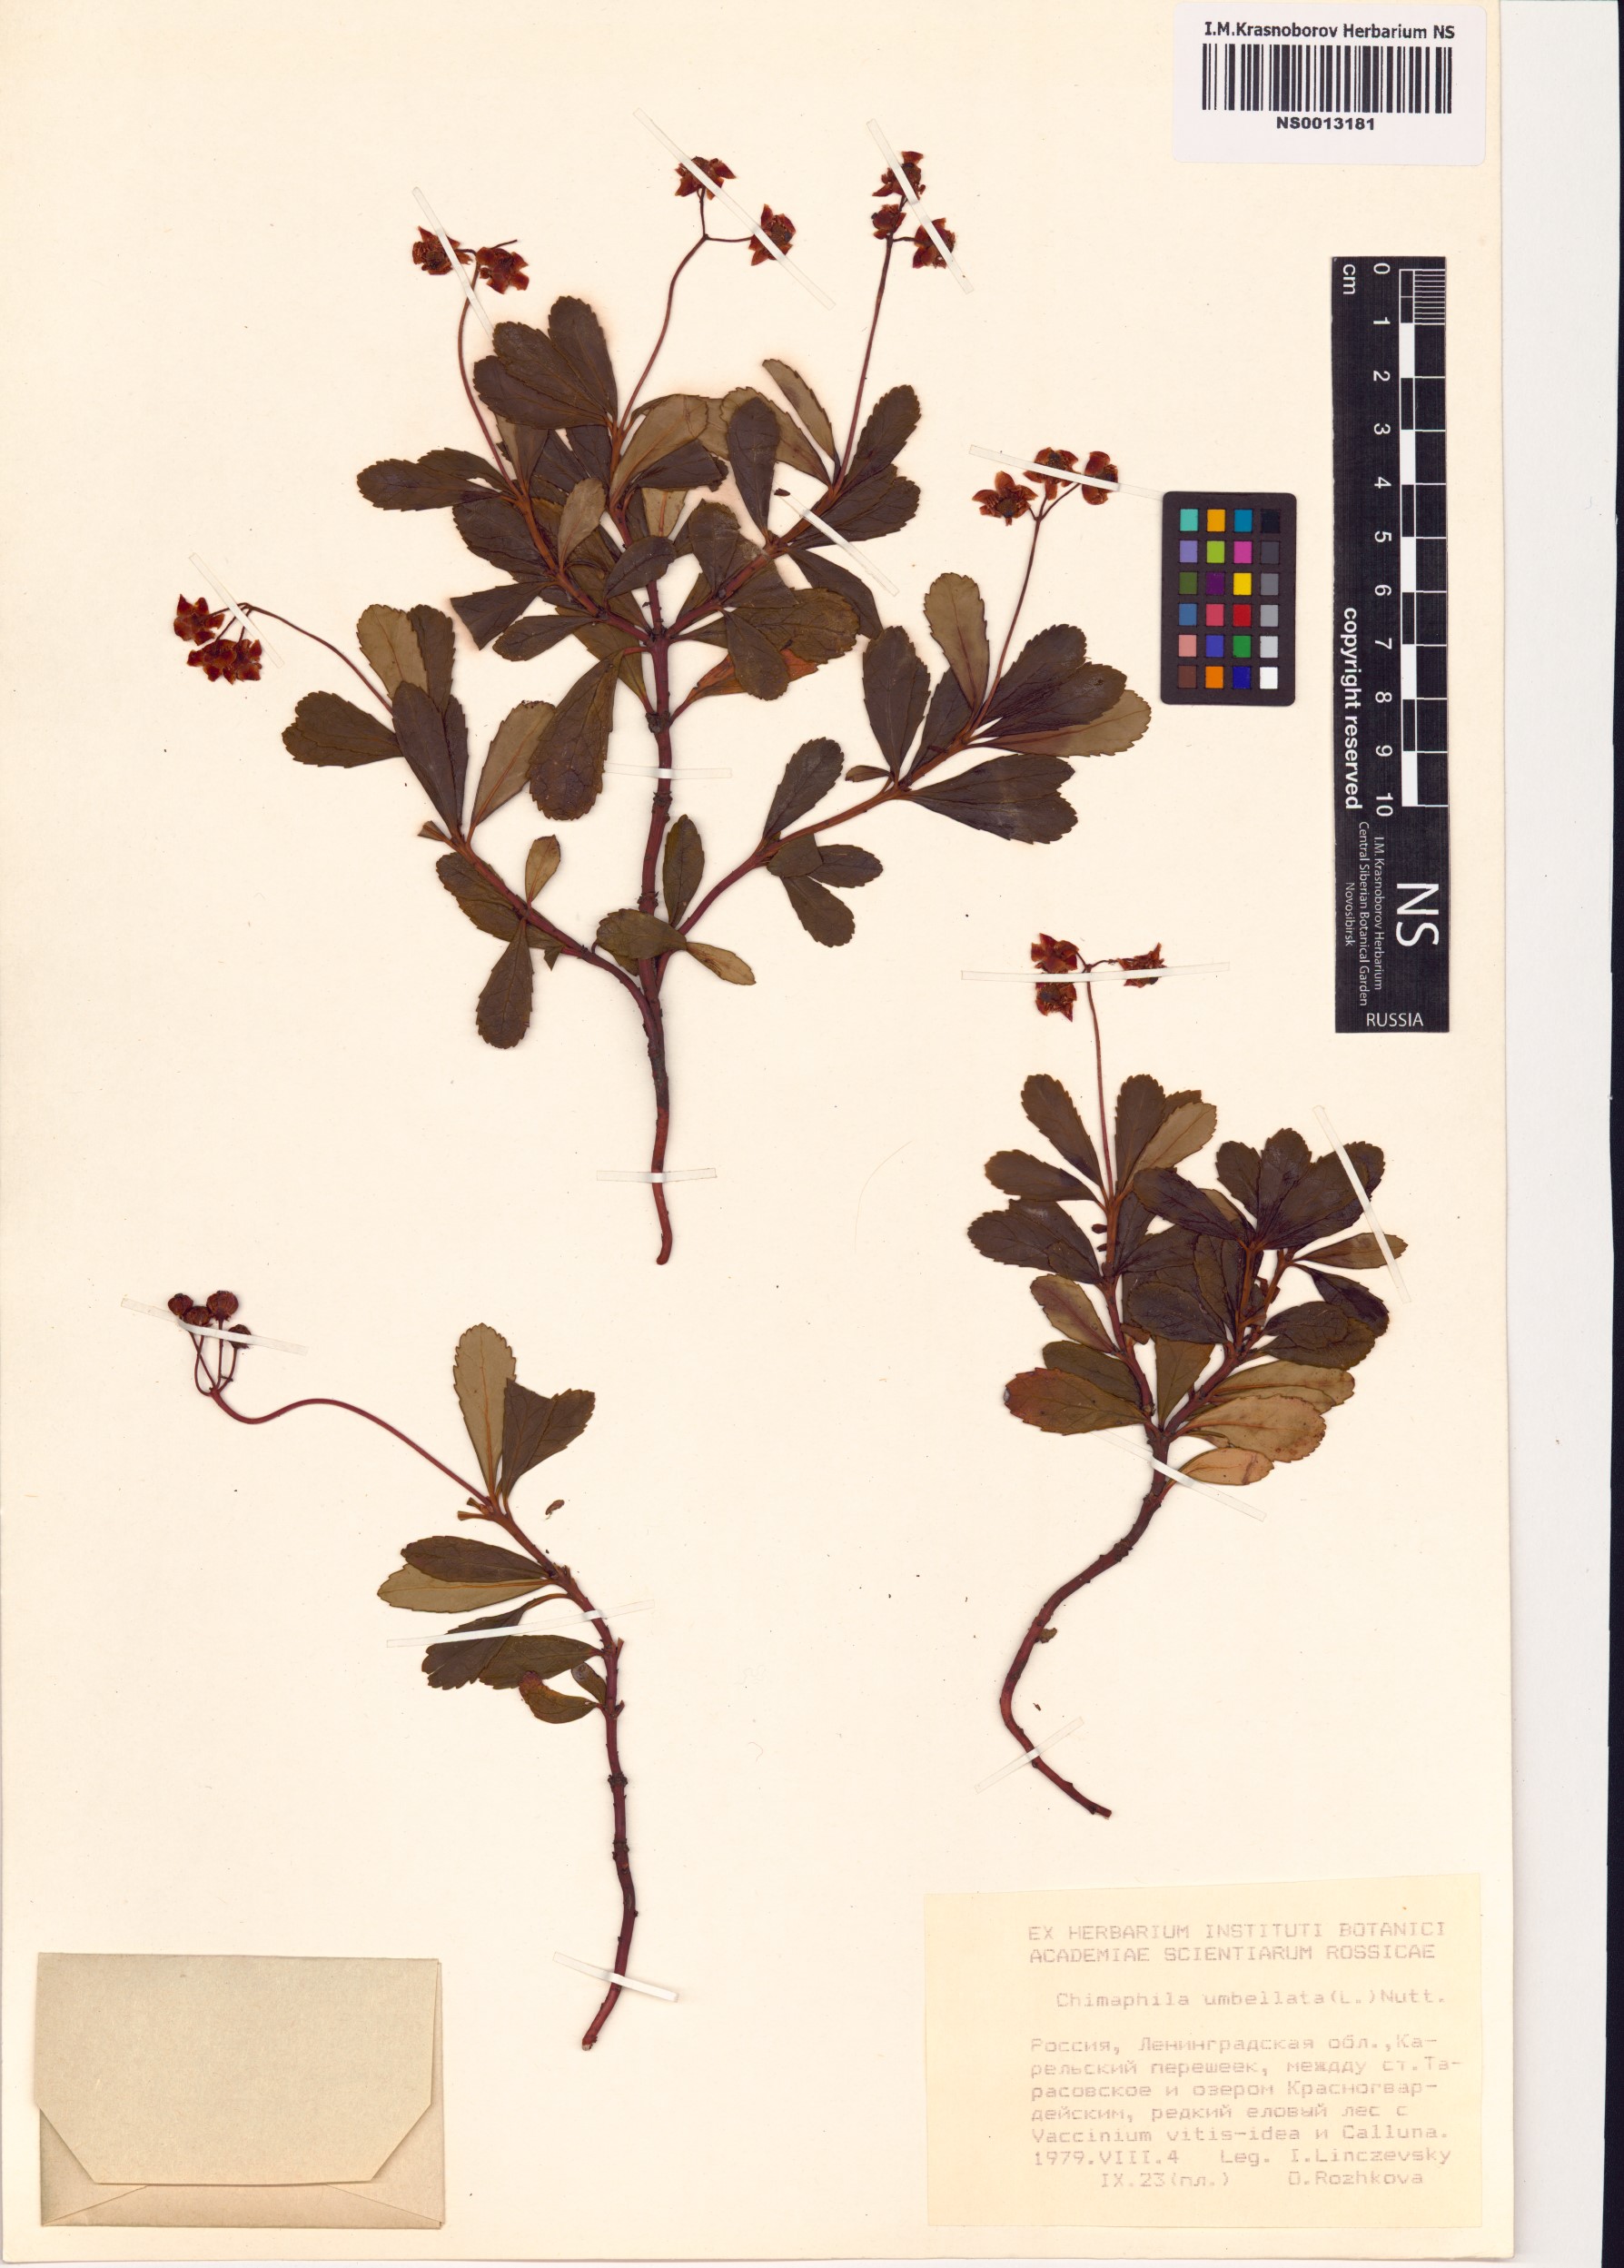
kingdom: Plantae
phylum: Tracheophyta
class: Magnoliopsida
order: Ericales
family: Ericaceae
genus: Chimaphila
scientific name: Chimaphila umbellata
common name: Pipsissewa
